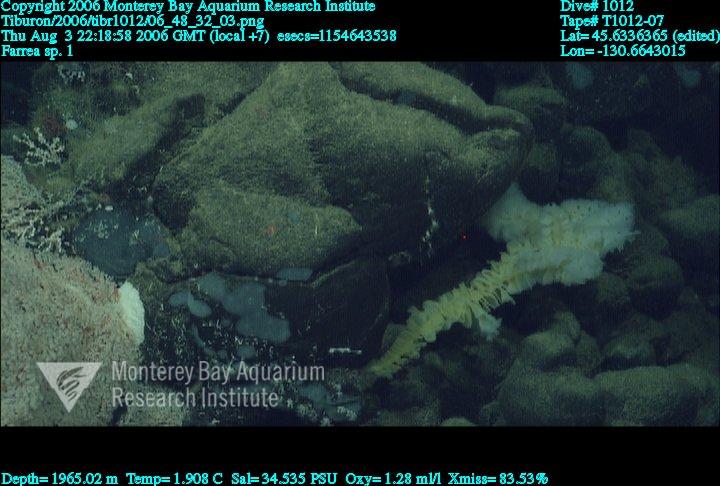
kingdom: Animalia
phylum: Porifera
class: Hexactinellida
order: Sceptrulophora
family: Farreidae
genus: Farrea
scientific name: Farrea truncata
